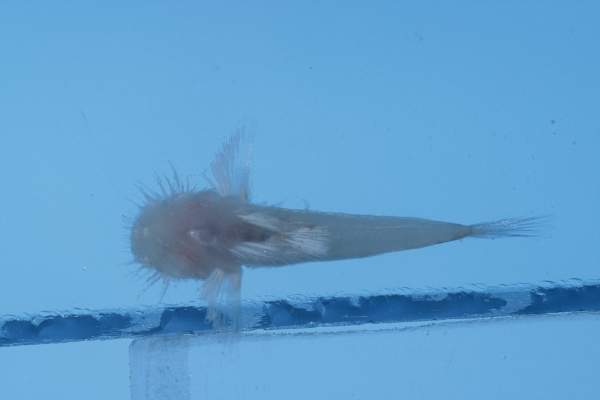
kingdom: Animalia
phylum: Chordata
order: Perciformes
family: Gobiidae
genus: Barbuligobius
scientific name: Barbuligobius boehlkei
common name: Bearded goby
